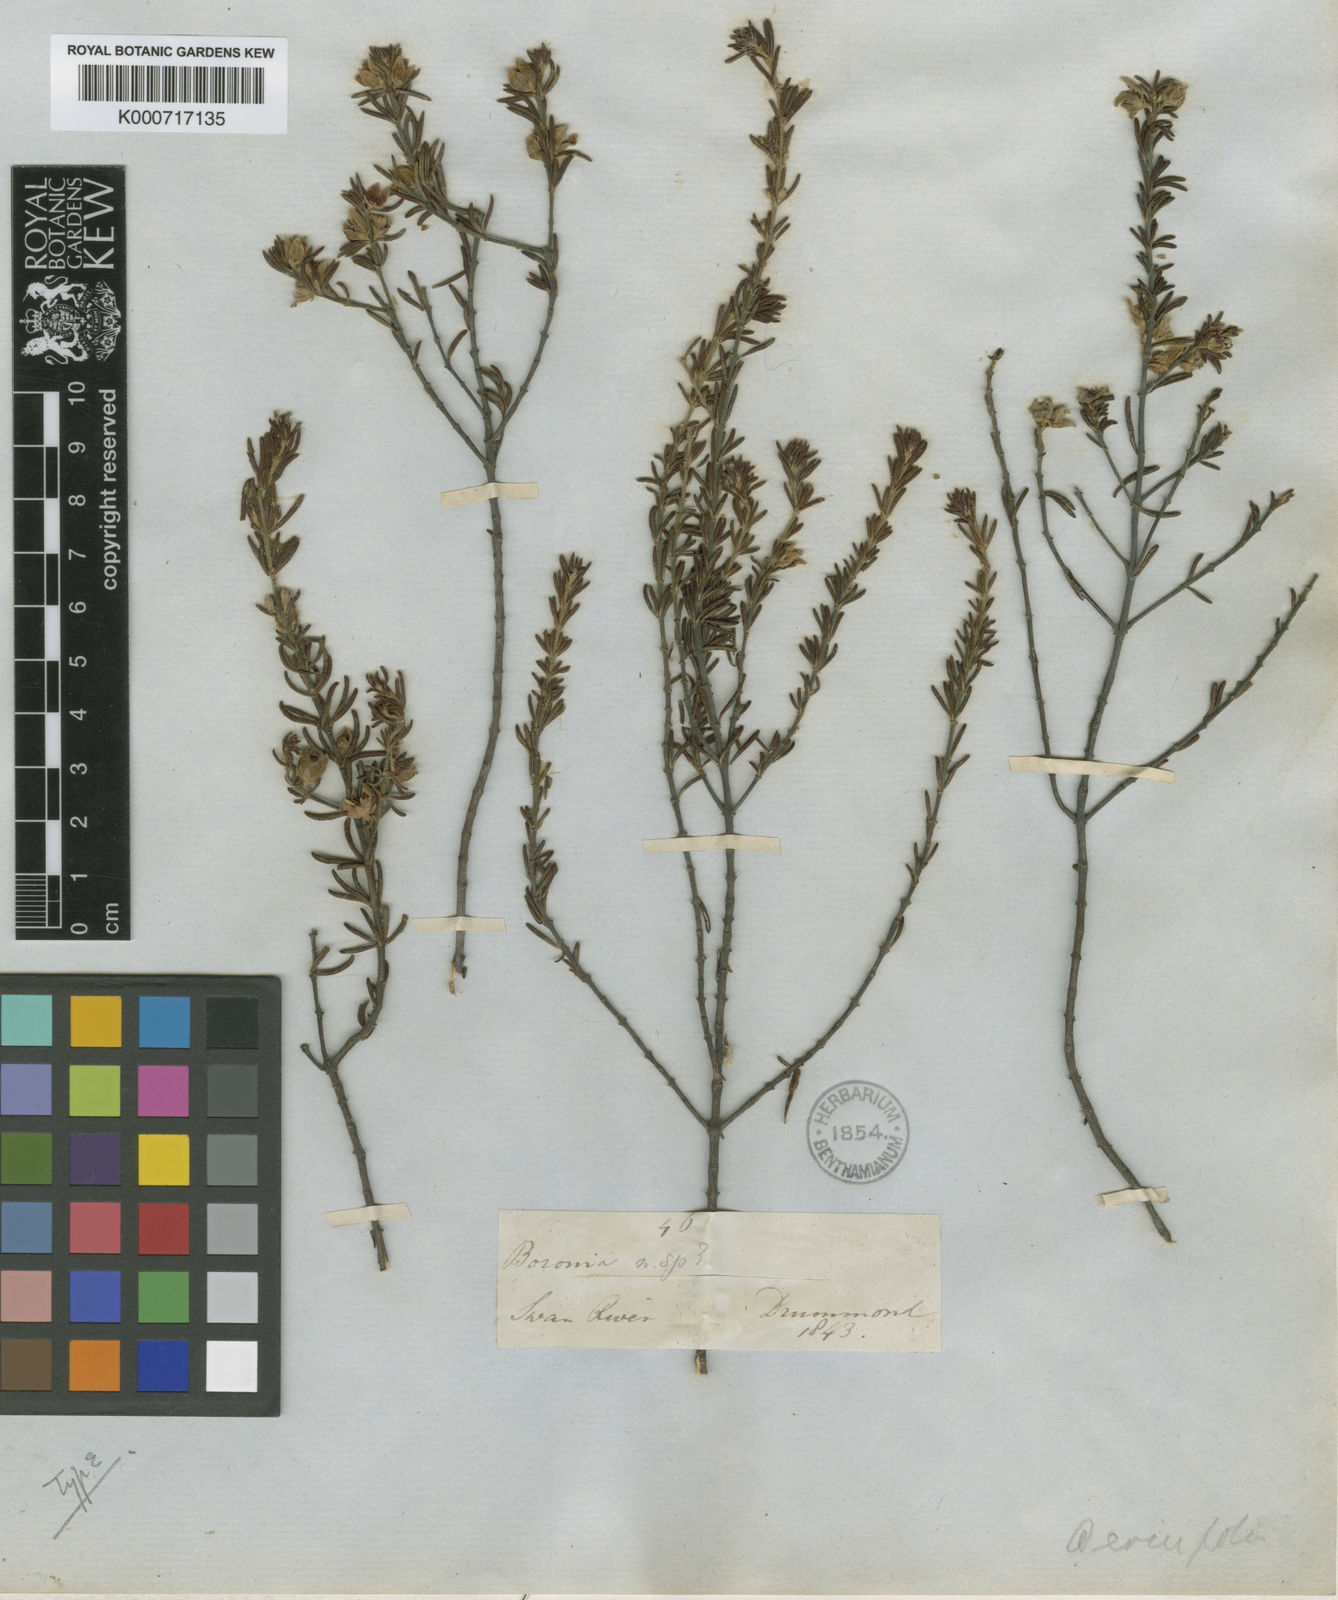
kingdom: Plantae
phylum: Tracheophyta
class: Magnoliopsida
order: Sapindales
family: Rutaceae
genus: Boronia
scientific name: Boronia ericifolia
